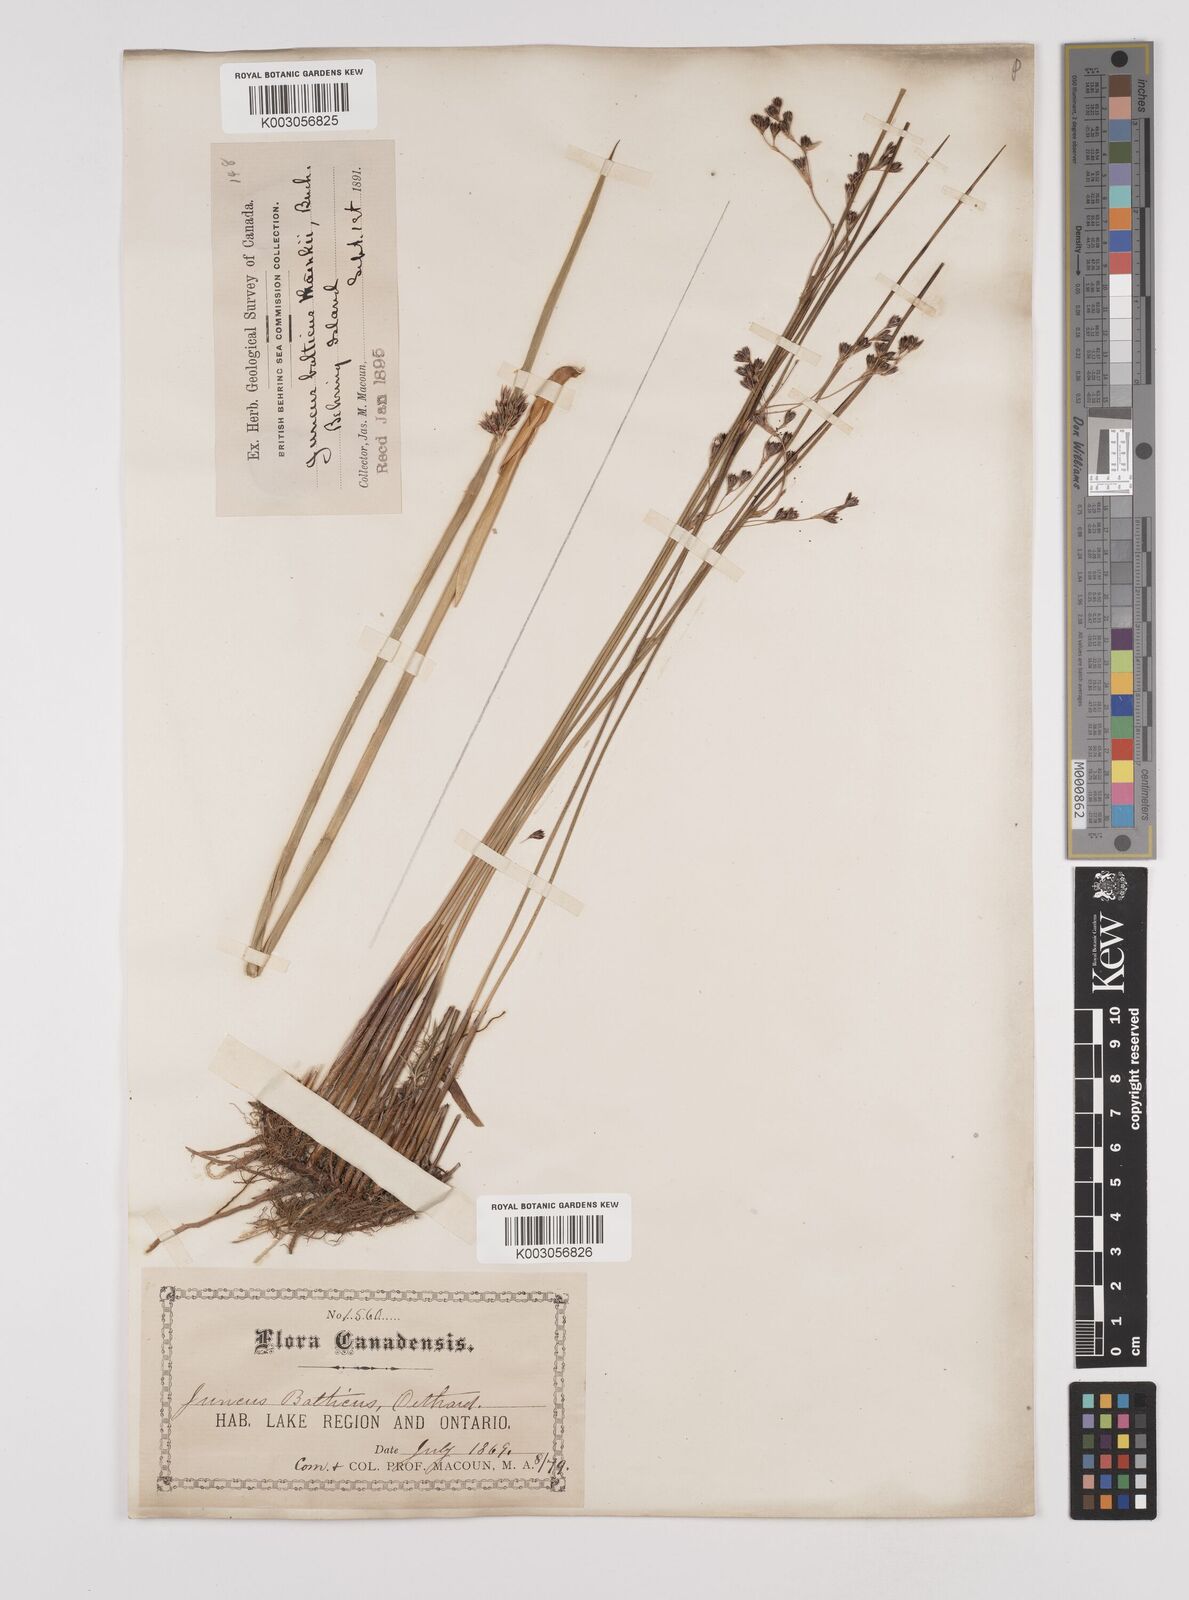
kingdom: Plantae
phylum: Tracheophyta
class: Liliopsida
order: Poales
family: Juncaceae
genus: Juncus
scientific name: Juncus balticus
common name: Baltic rush
